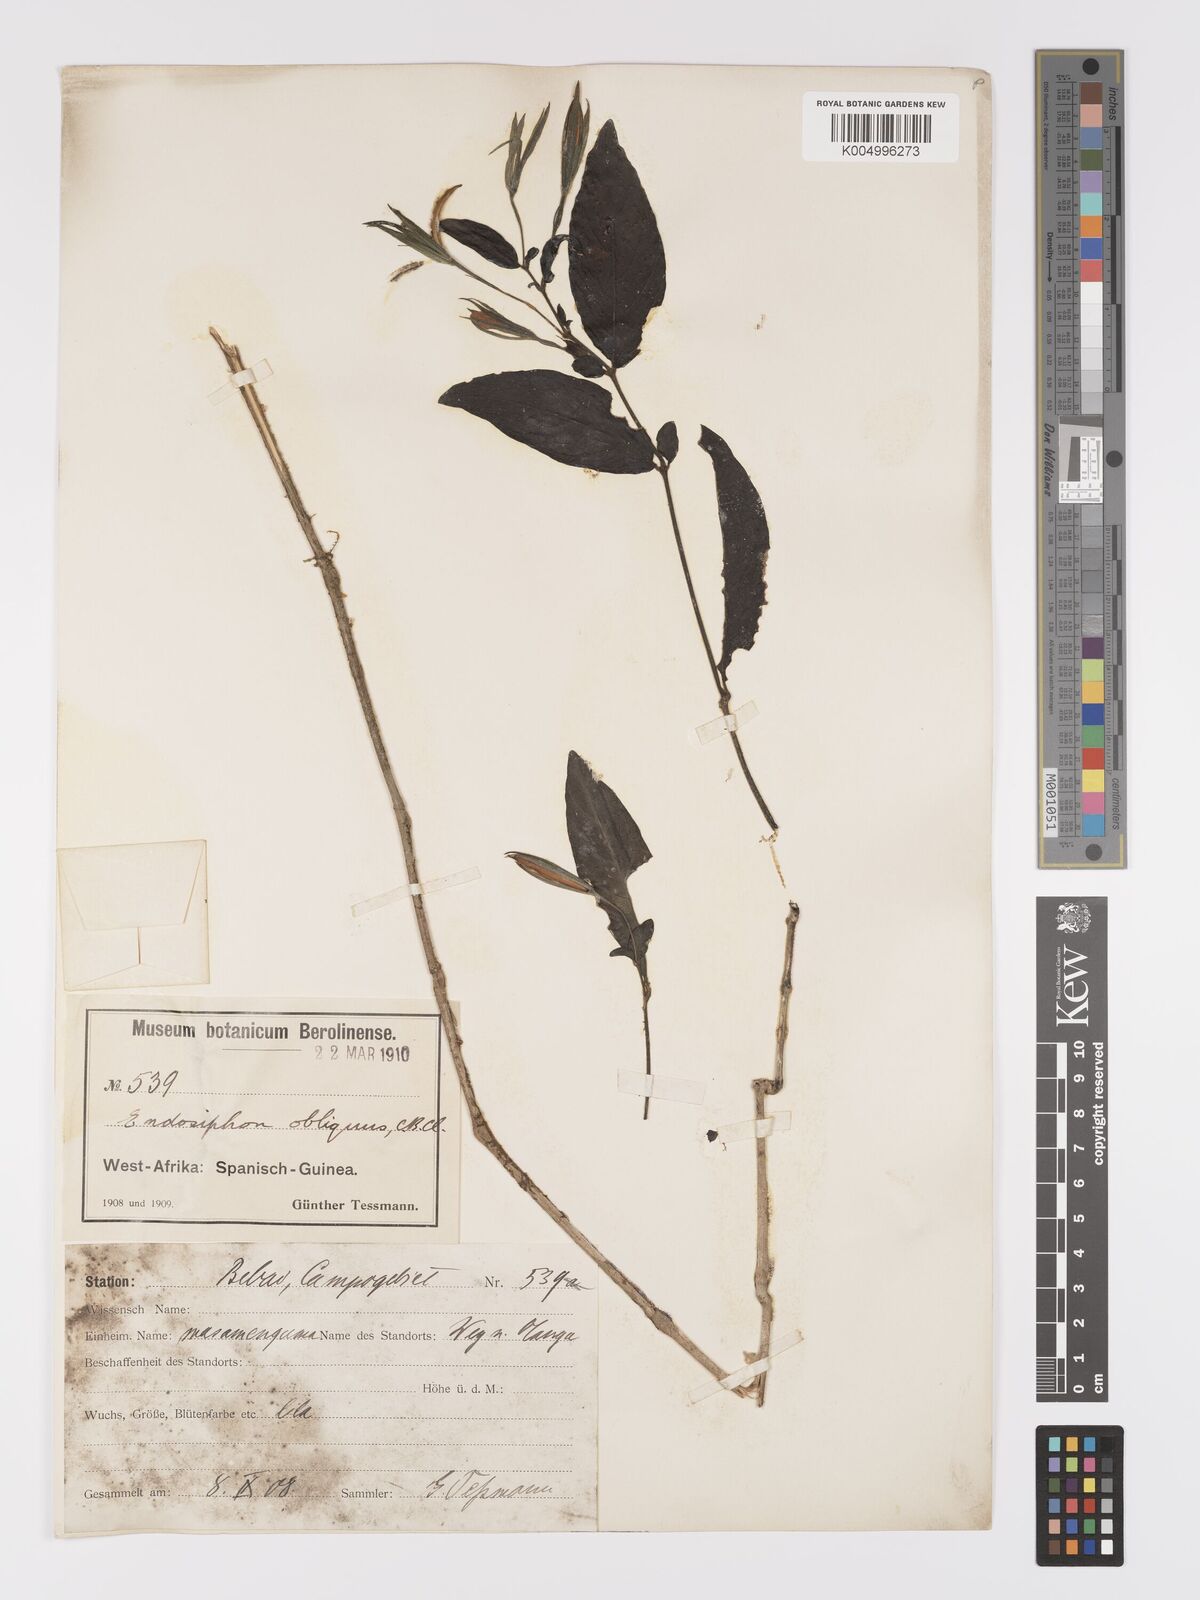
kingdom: Plantae
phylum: Tracheophyta
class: Magnoliopsida
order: Lamiales
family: Acanthaceae
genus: Ruellia
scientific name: Ruellia primuloides
